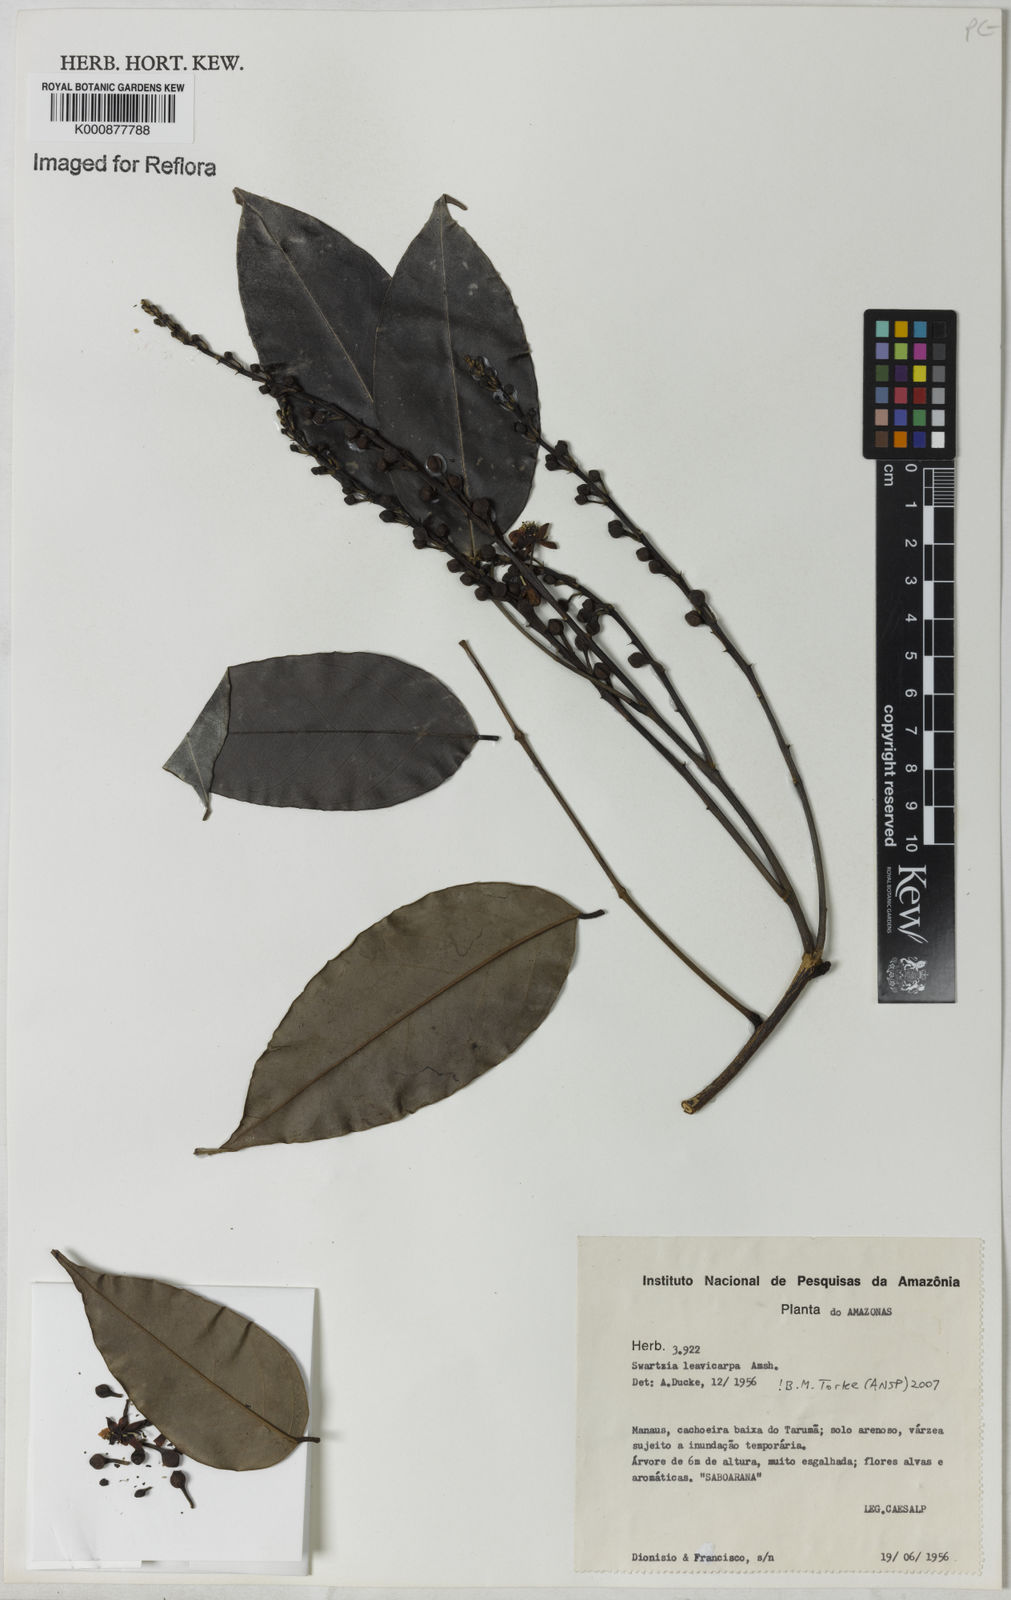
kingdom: Plantae
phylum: Tracheophyta
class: Magnoliopsida
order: Fabales
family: Fabaceae
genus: Swartzia
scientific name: Swartzia laevicarpa
